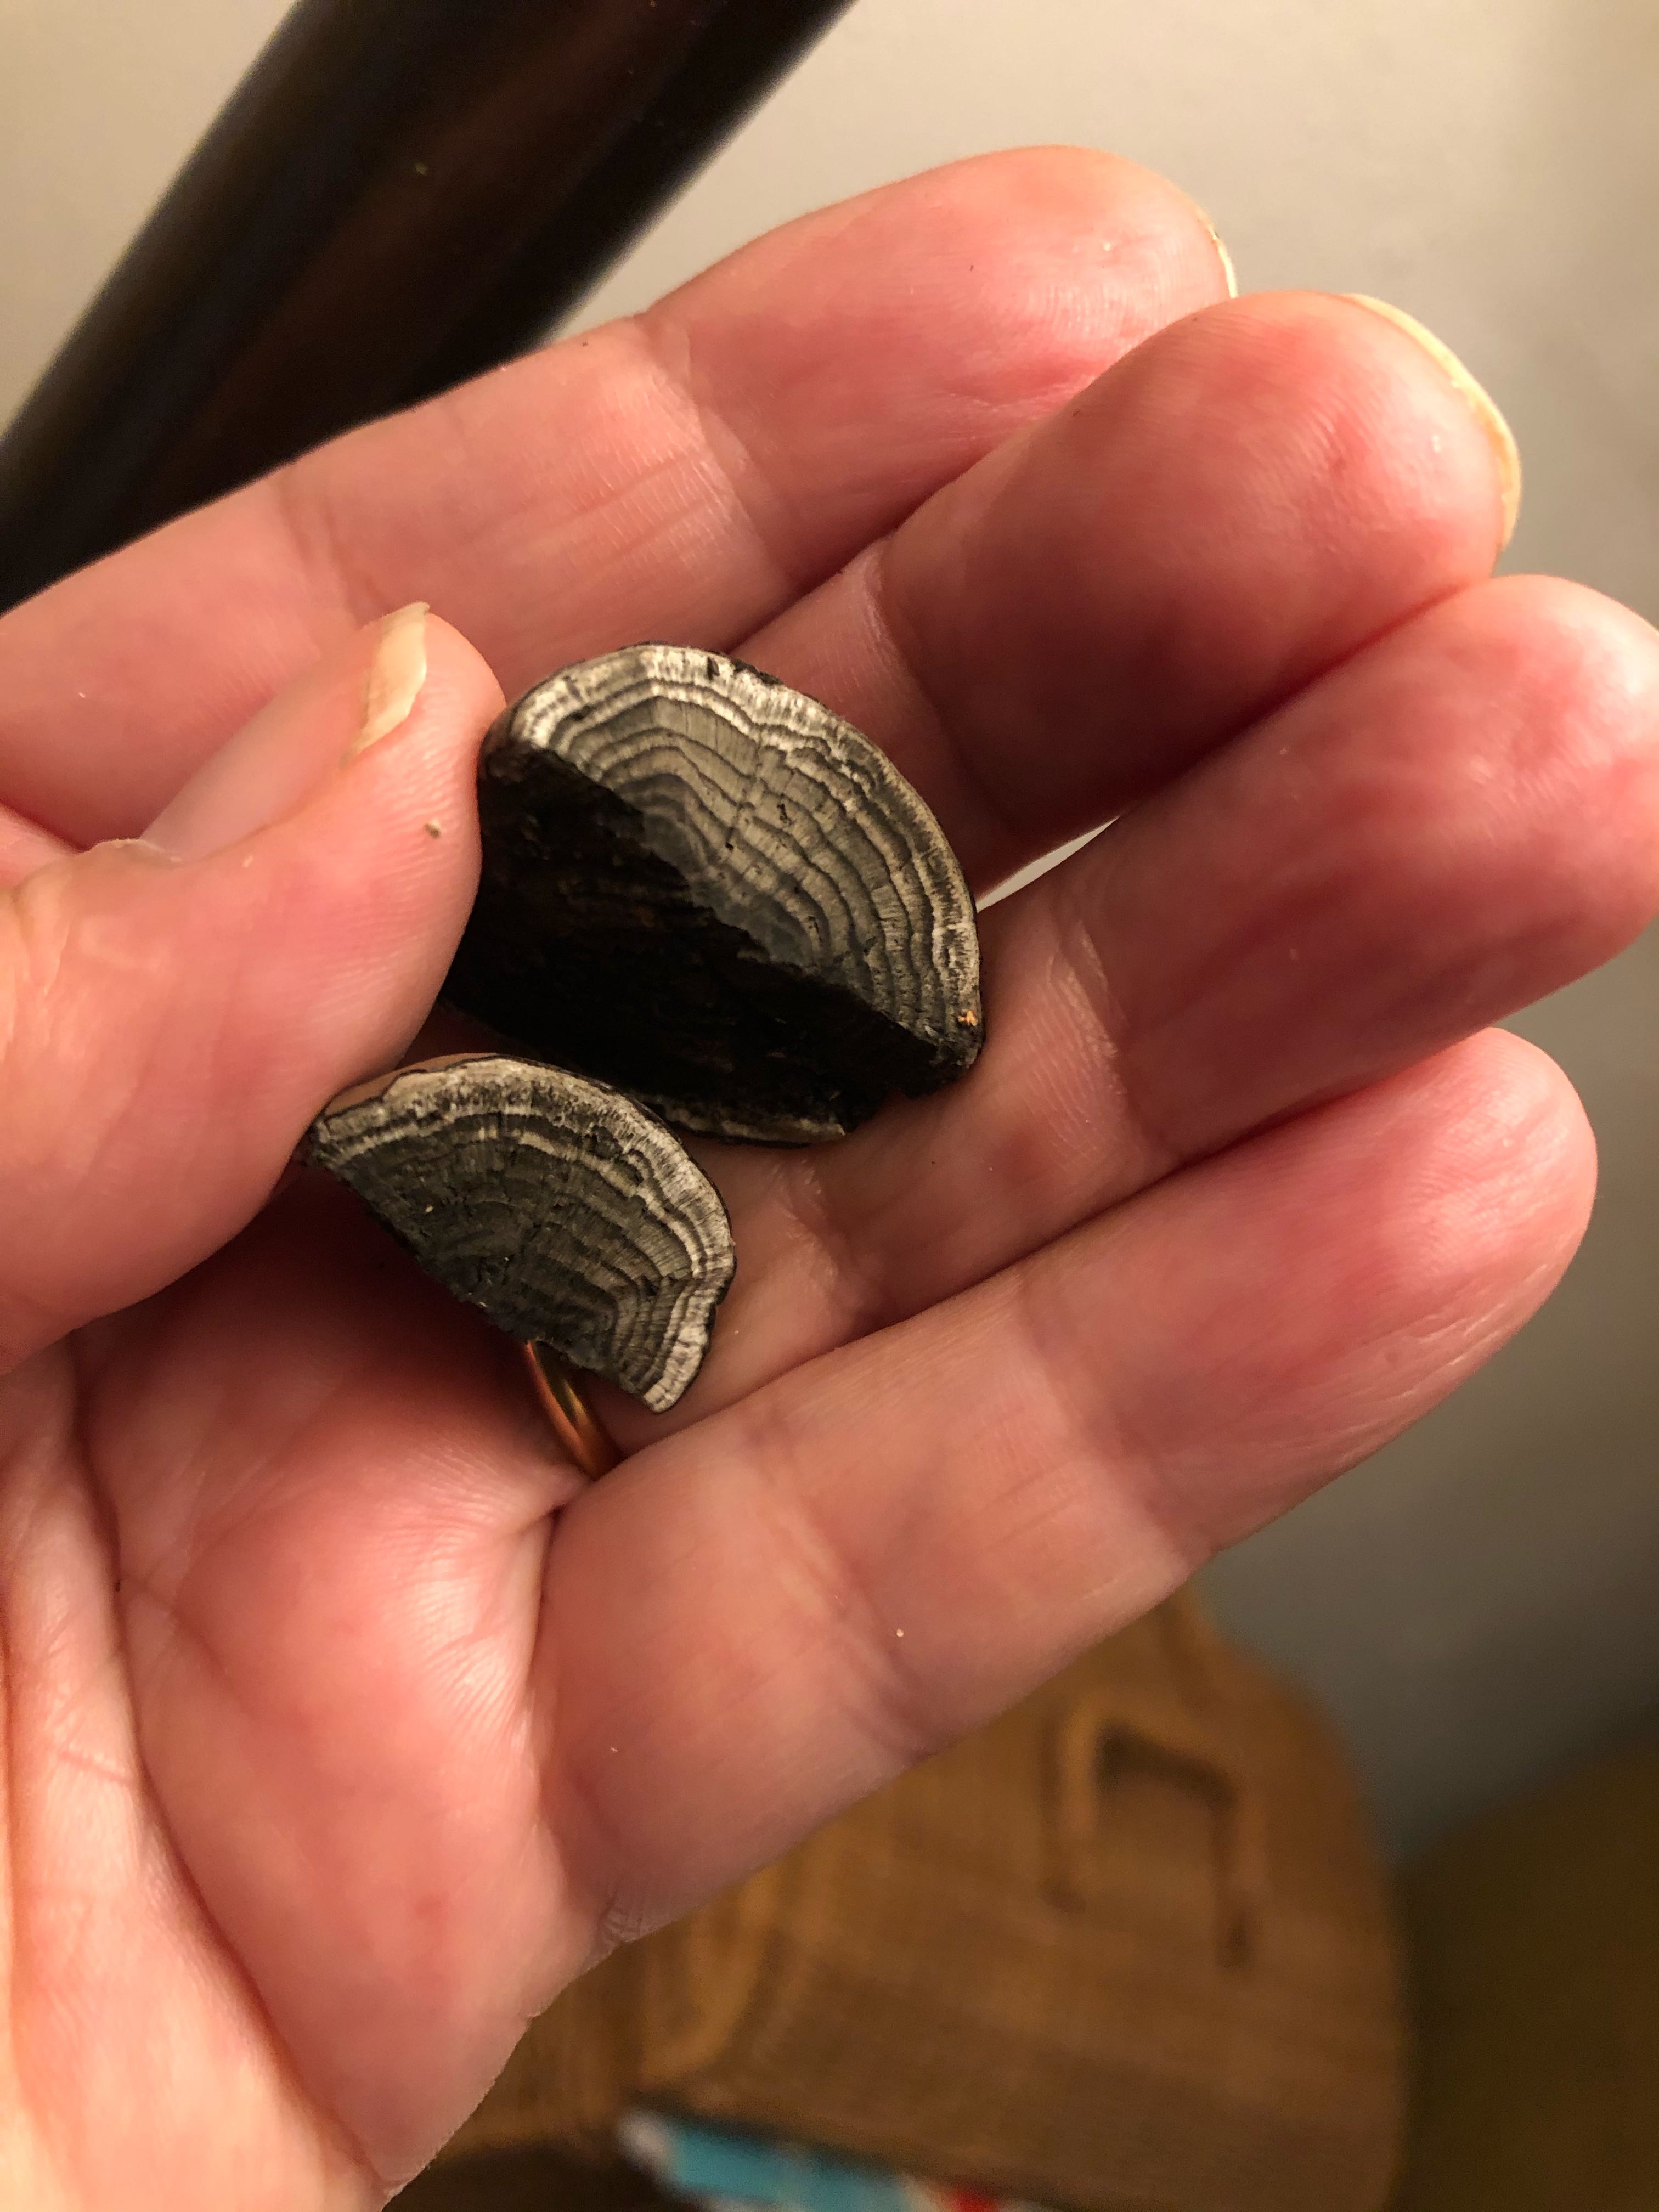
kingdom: Fungi
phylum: Ascomycota
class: Sordariomycetes
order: Xylariales
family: Hypoxylaceae
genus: Daldinia
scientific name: Daldinia concentrica
